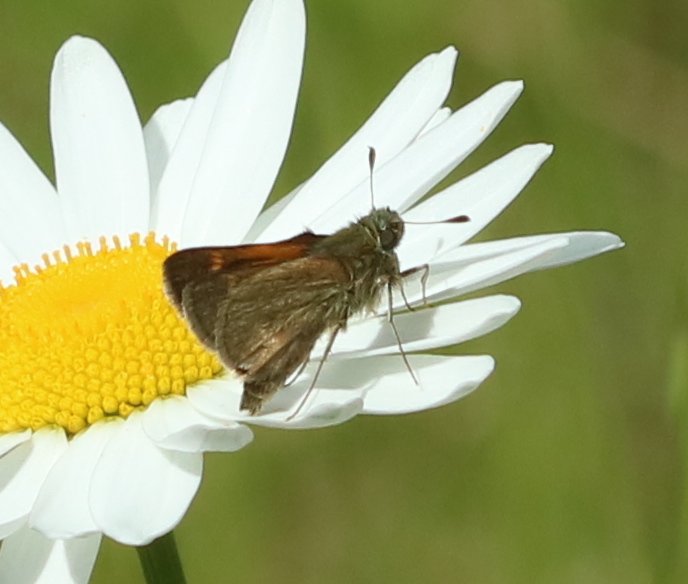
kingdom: Animalia
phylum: Arthropoda
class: Insecta
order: Lepidoptera
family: Hesperiidae
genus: Polites
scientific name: Polites themistocles
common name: Tawny-edged Skipper
